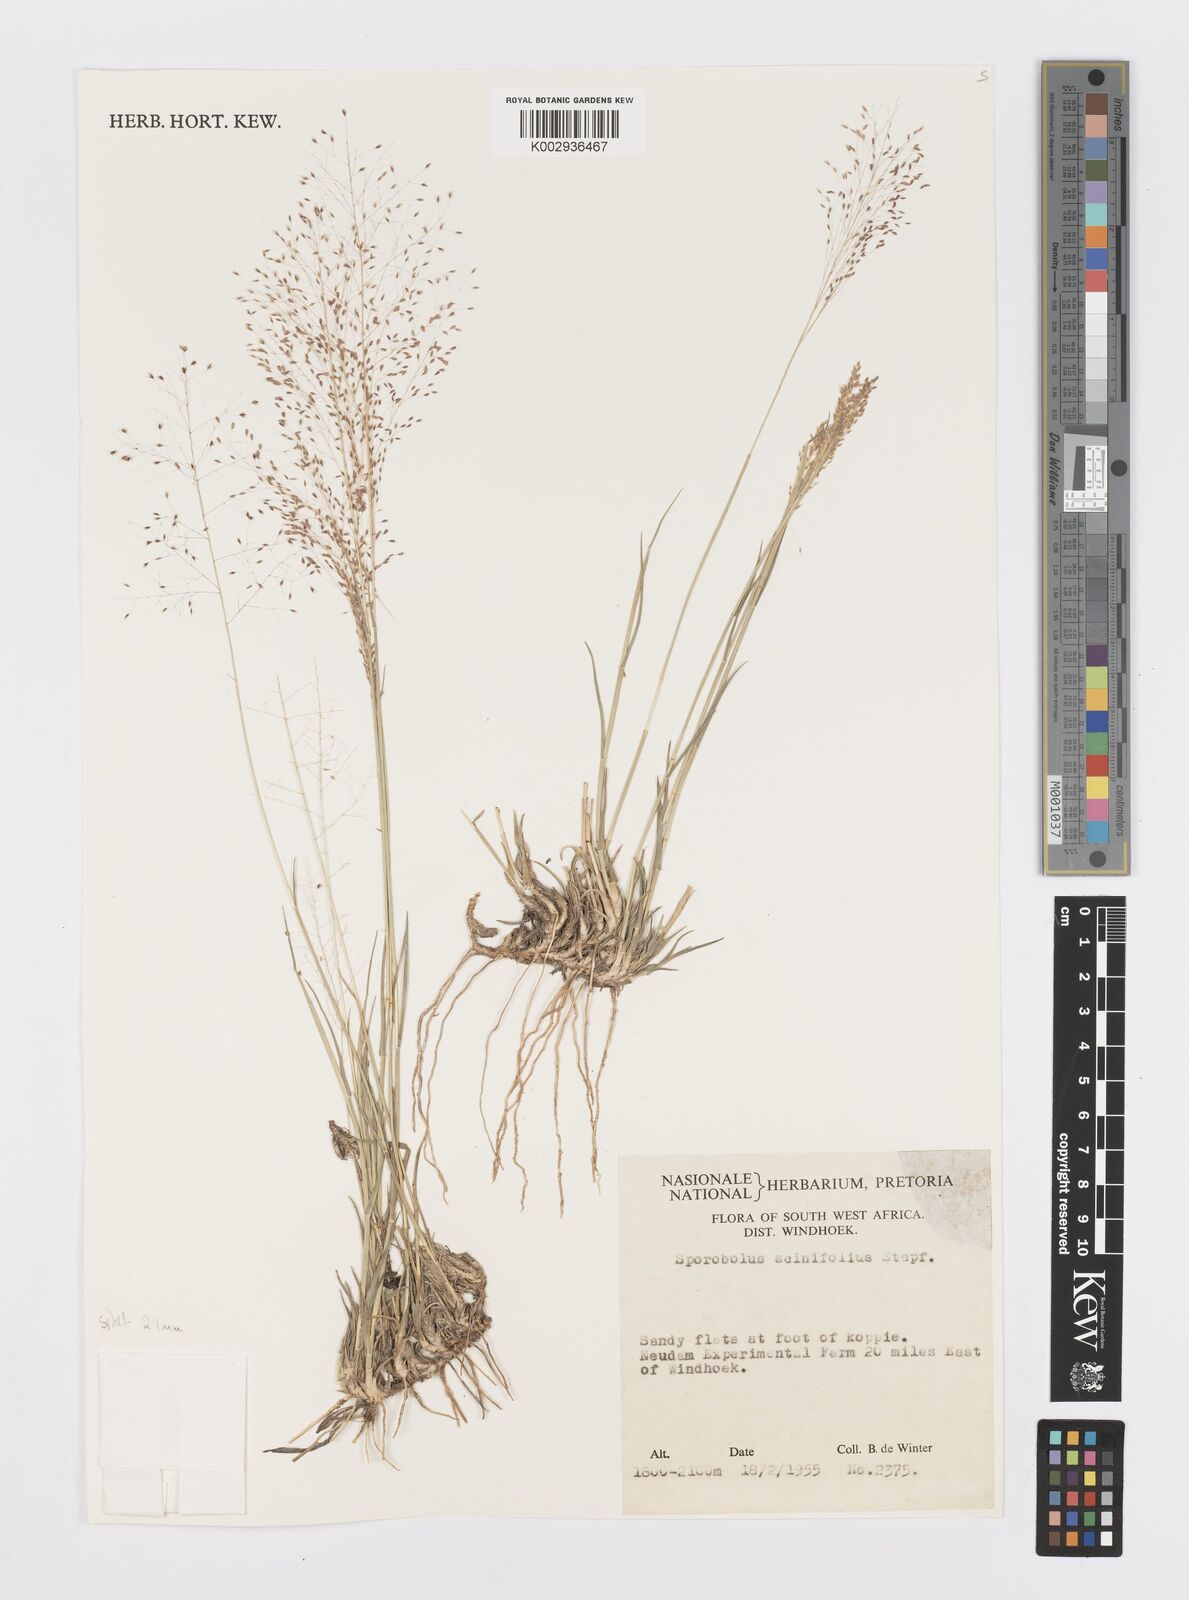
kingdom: Plantae
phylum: Tracheophyta
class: Liliopsida
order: Poales
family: Poaceae
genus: Sporobolus
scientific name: Sporobolus acinifolius
